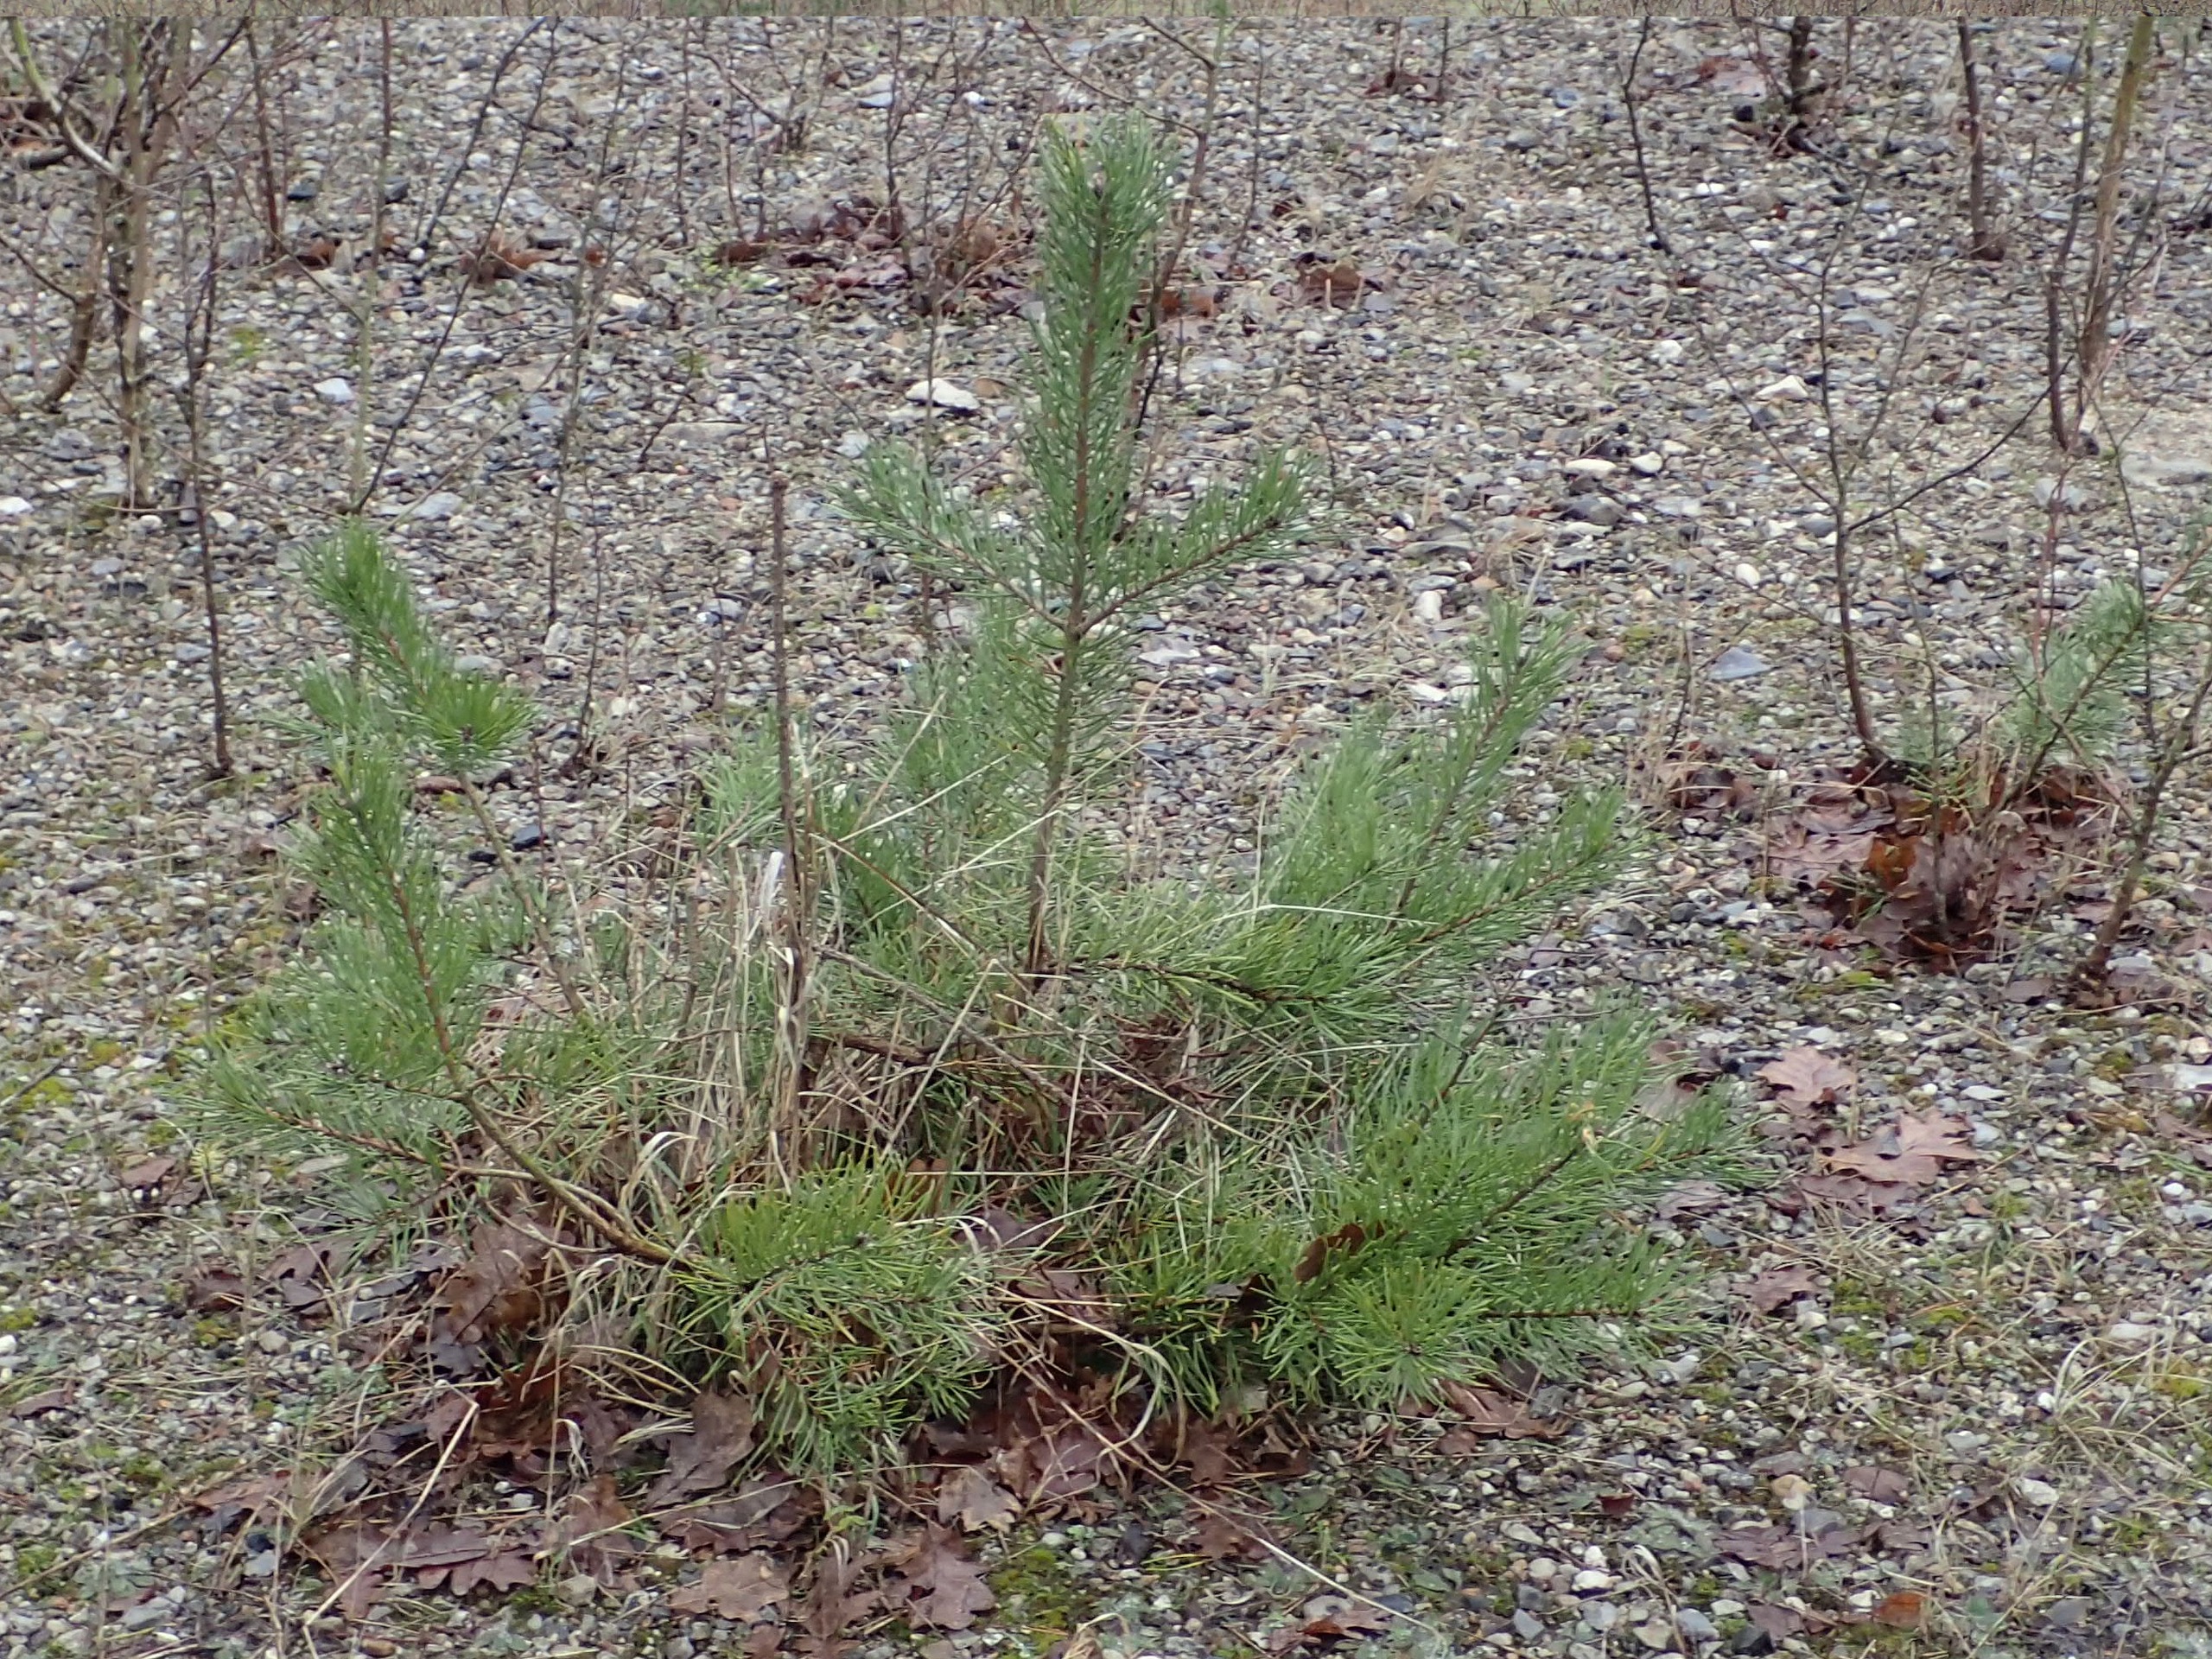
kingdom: Plantae
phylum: Tracheophyta
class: Pinopsida
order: Pinales
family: Pinaceae
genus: Pinus
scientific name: Pinus sylvestris
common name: Skov-fyr
